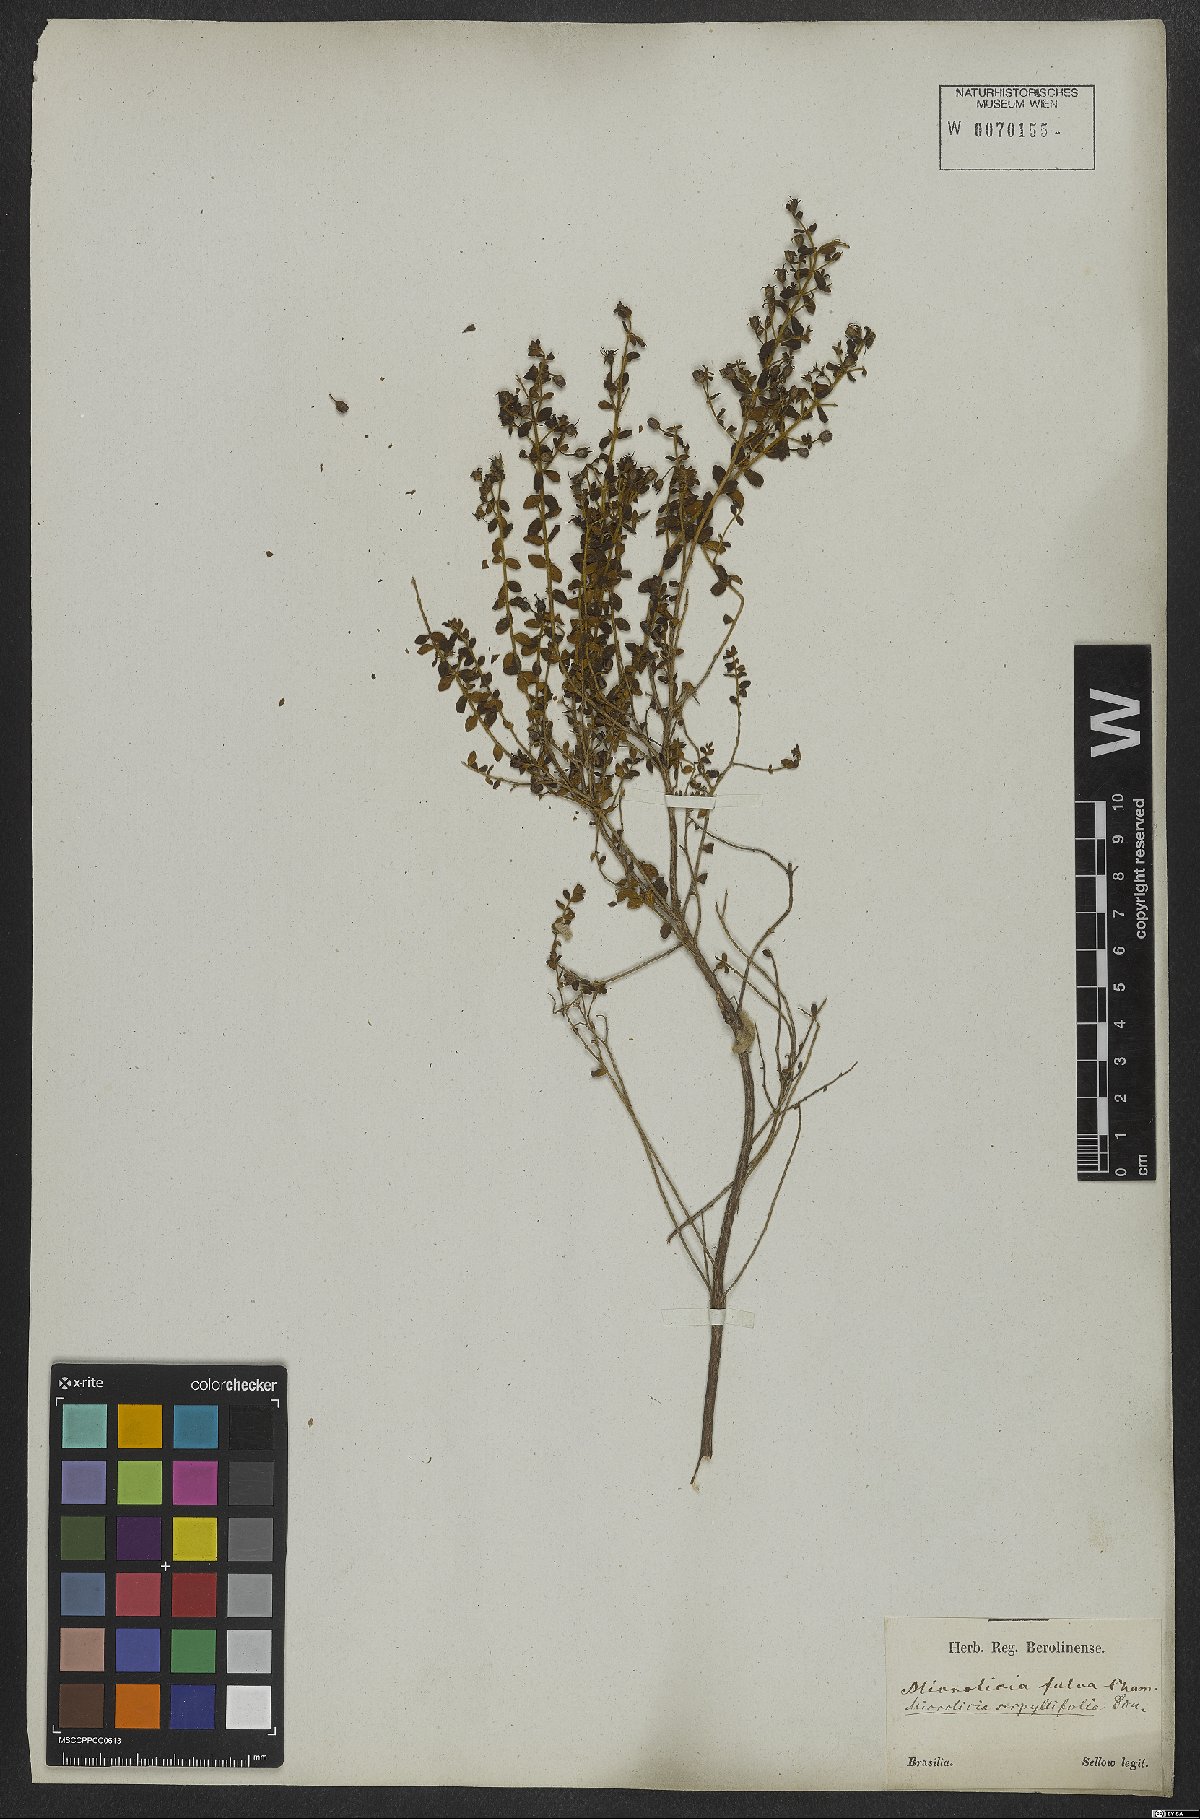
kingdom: Plantae
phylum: Tracheophyta
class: Magnoliopsida
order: Myrtales
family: Melastomataceae
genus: Microlicia
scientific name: Microlicia fulva
